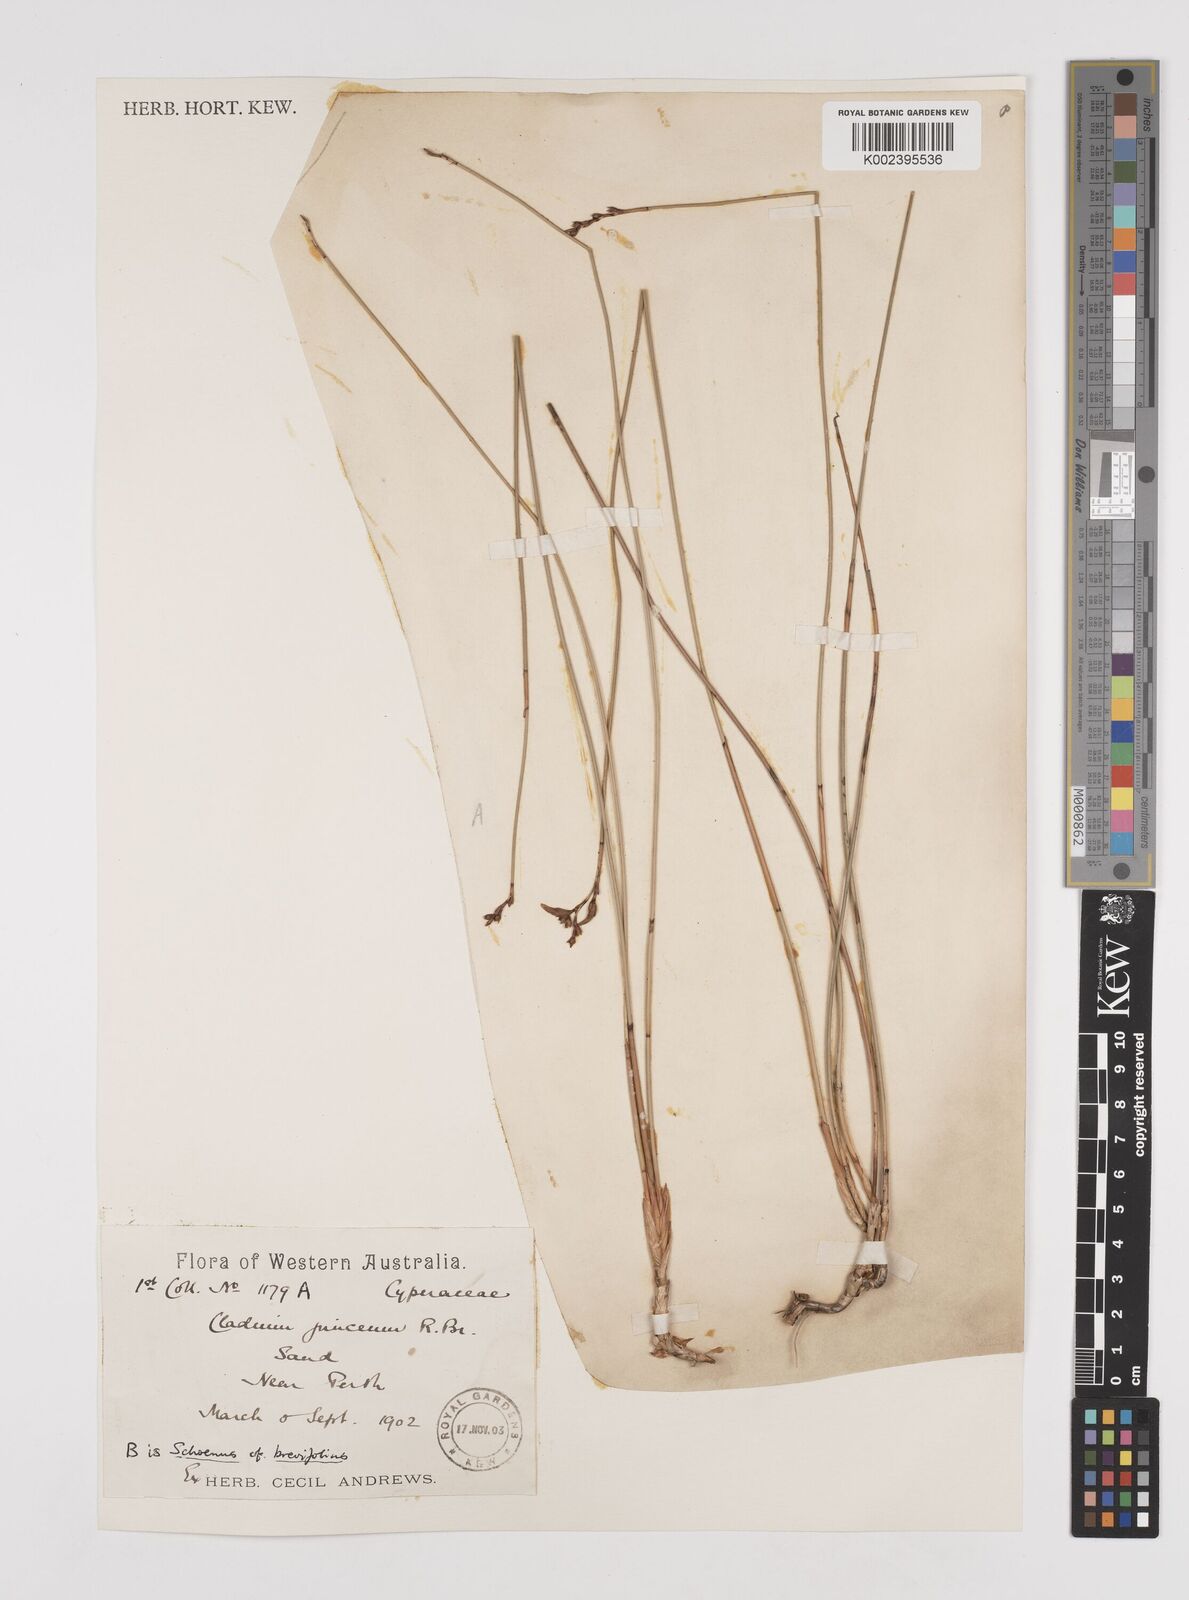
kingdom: Plantae
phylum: Tracheophyta
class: Liliopsida
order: Poales
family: Cyperaceae
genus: Machaerina
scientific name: Machaerina juncea
